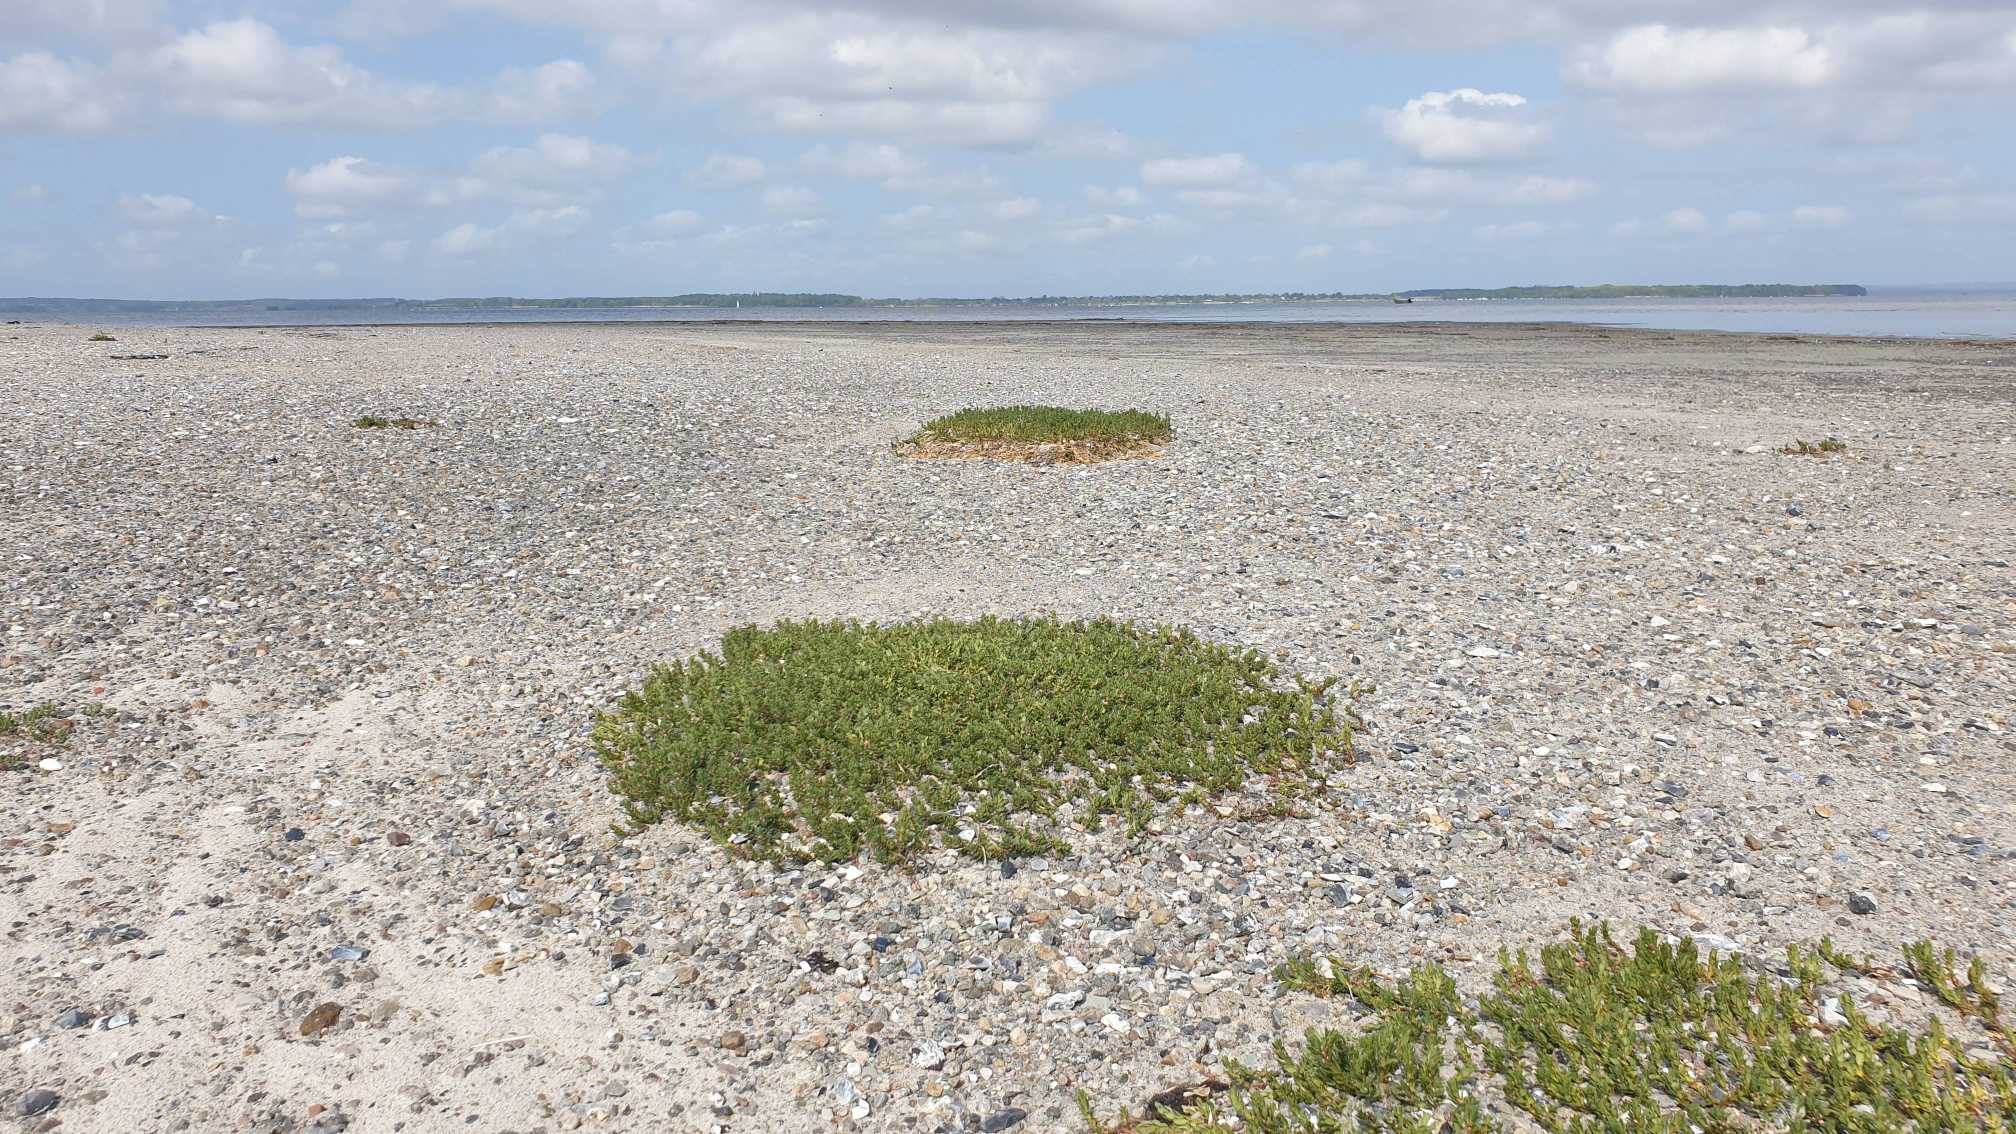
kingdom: Plantae
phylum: Tracheophyta
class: Magnoliopsida
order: Ericales
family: Primulaceae
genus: Lysimachia
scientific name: Lysimachia maritima
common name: Sandkryb
